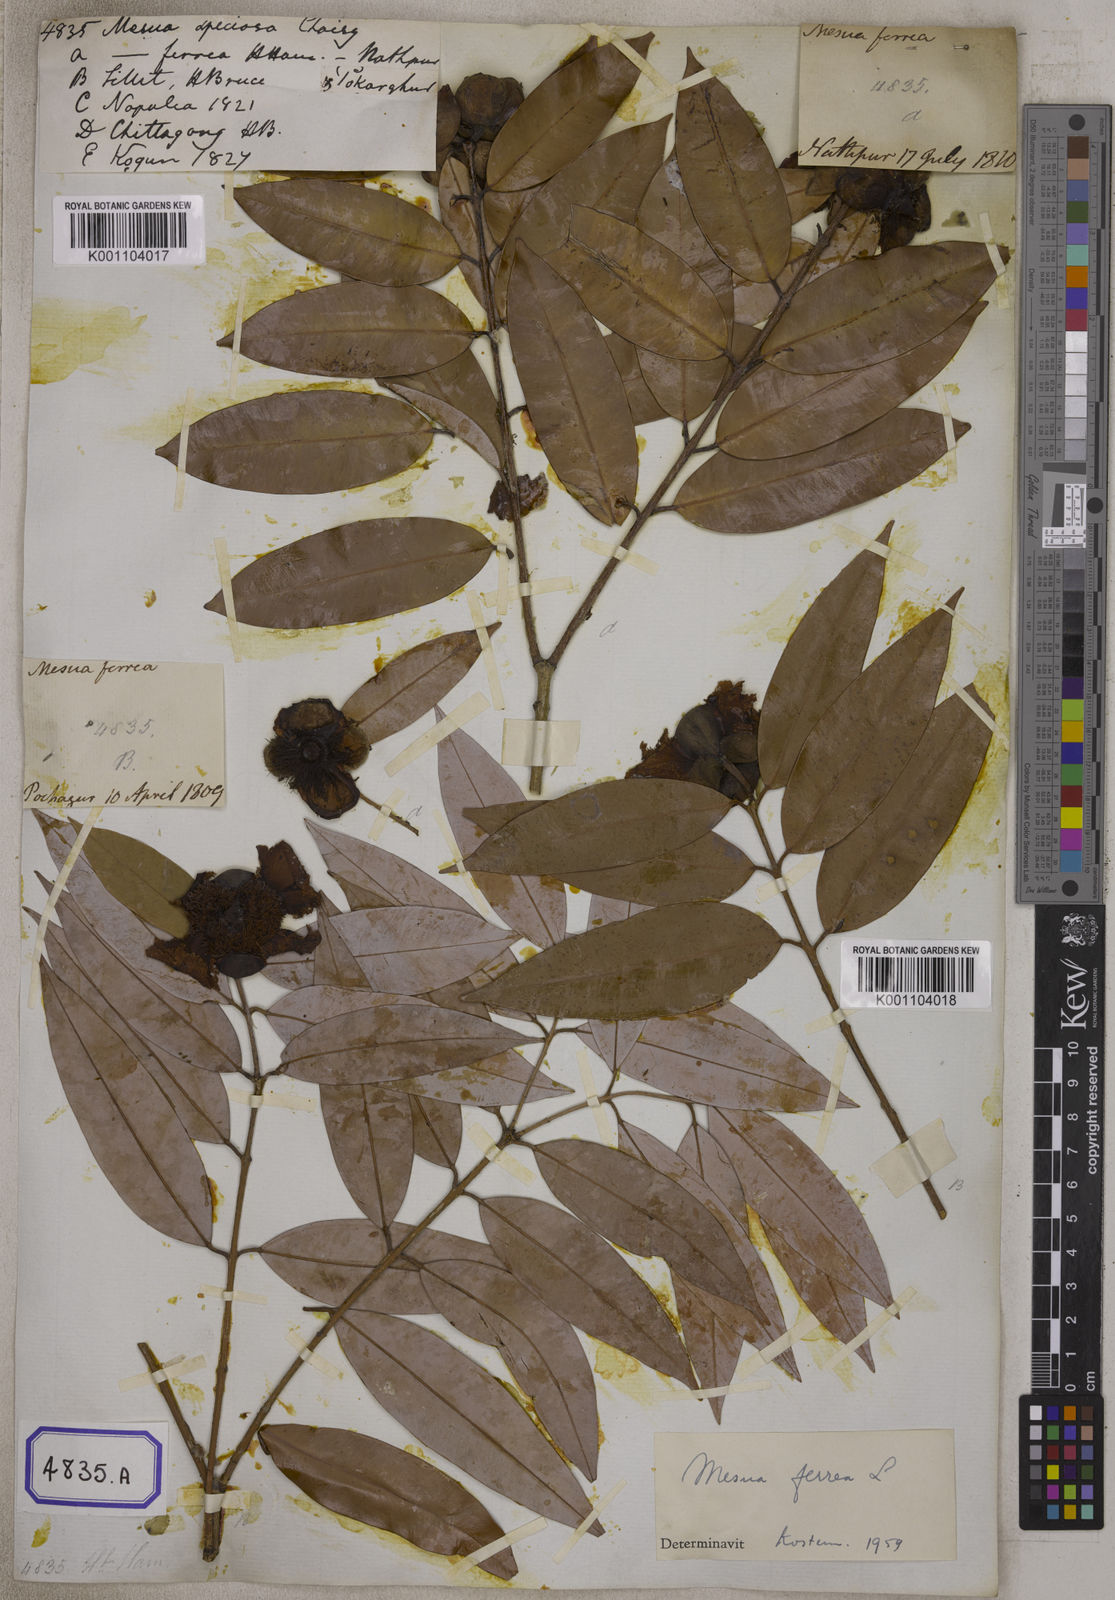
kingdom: Plantae
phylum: Tracheophyta
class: Magnoliopsida
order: Malpighiales
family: Calophyllaceae
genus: Mesua
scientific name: Mesua ferrea
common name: Mesua
